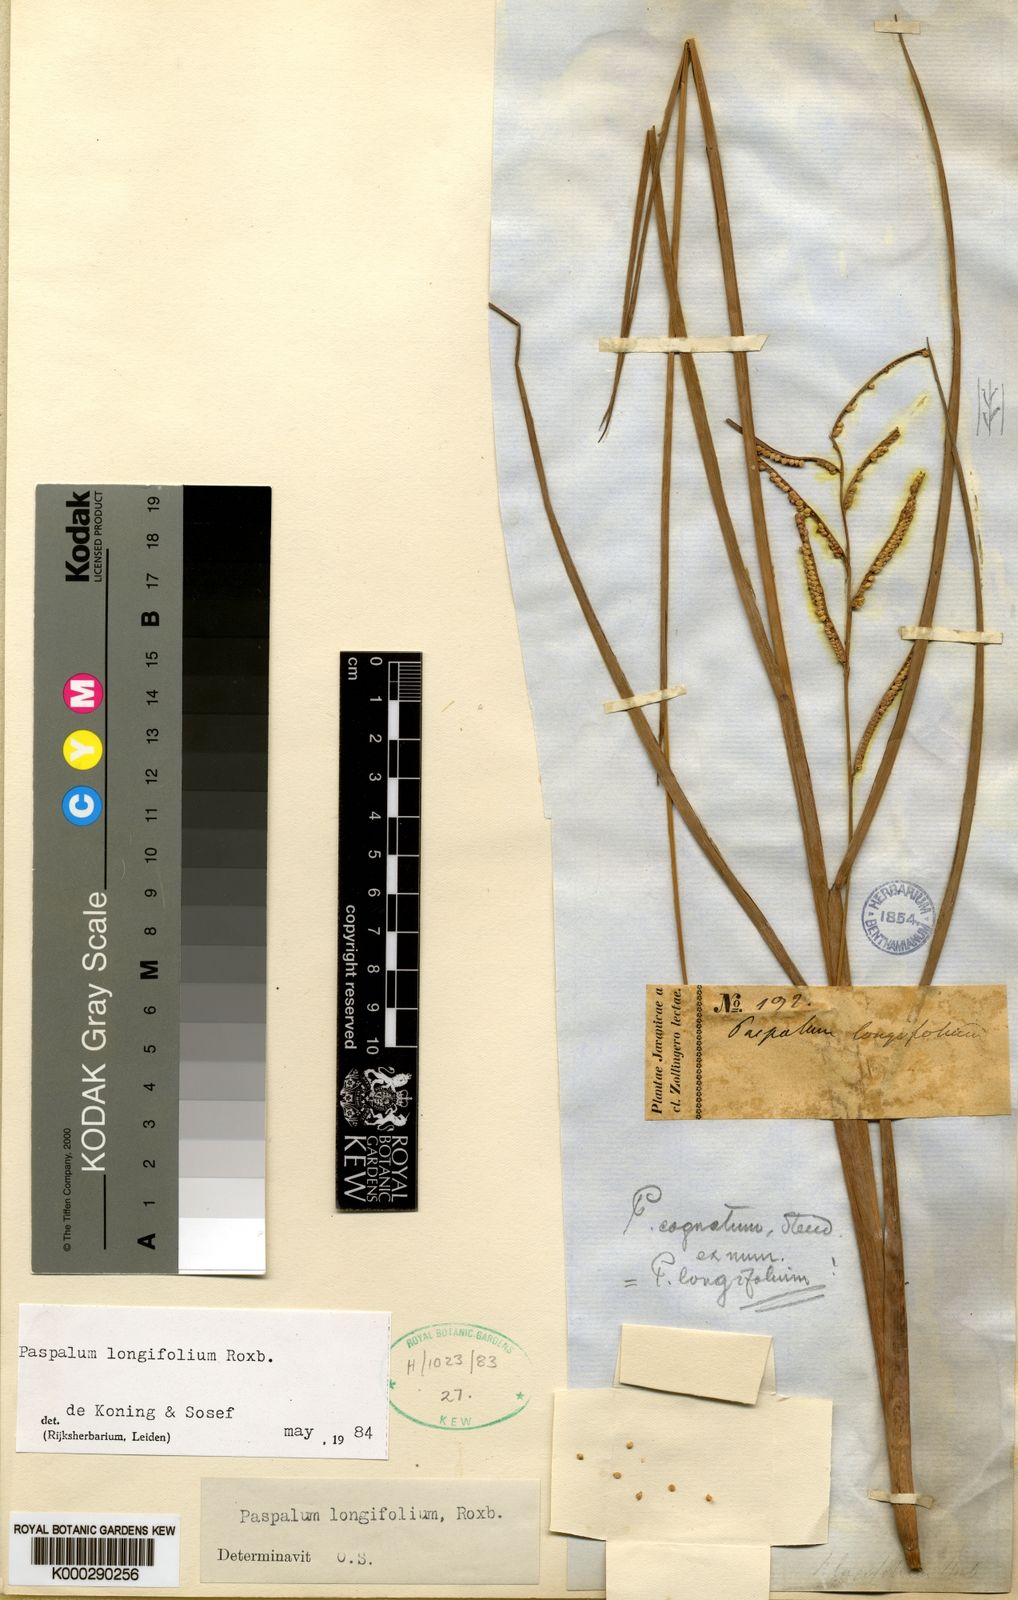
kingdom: Plantae
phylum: Tracheophyta
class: Liliopsida
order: Poales
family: Poaceae
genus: Paspalum
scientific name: Paspalum sumatrense
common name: Long-leaved paspalum
